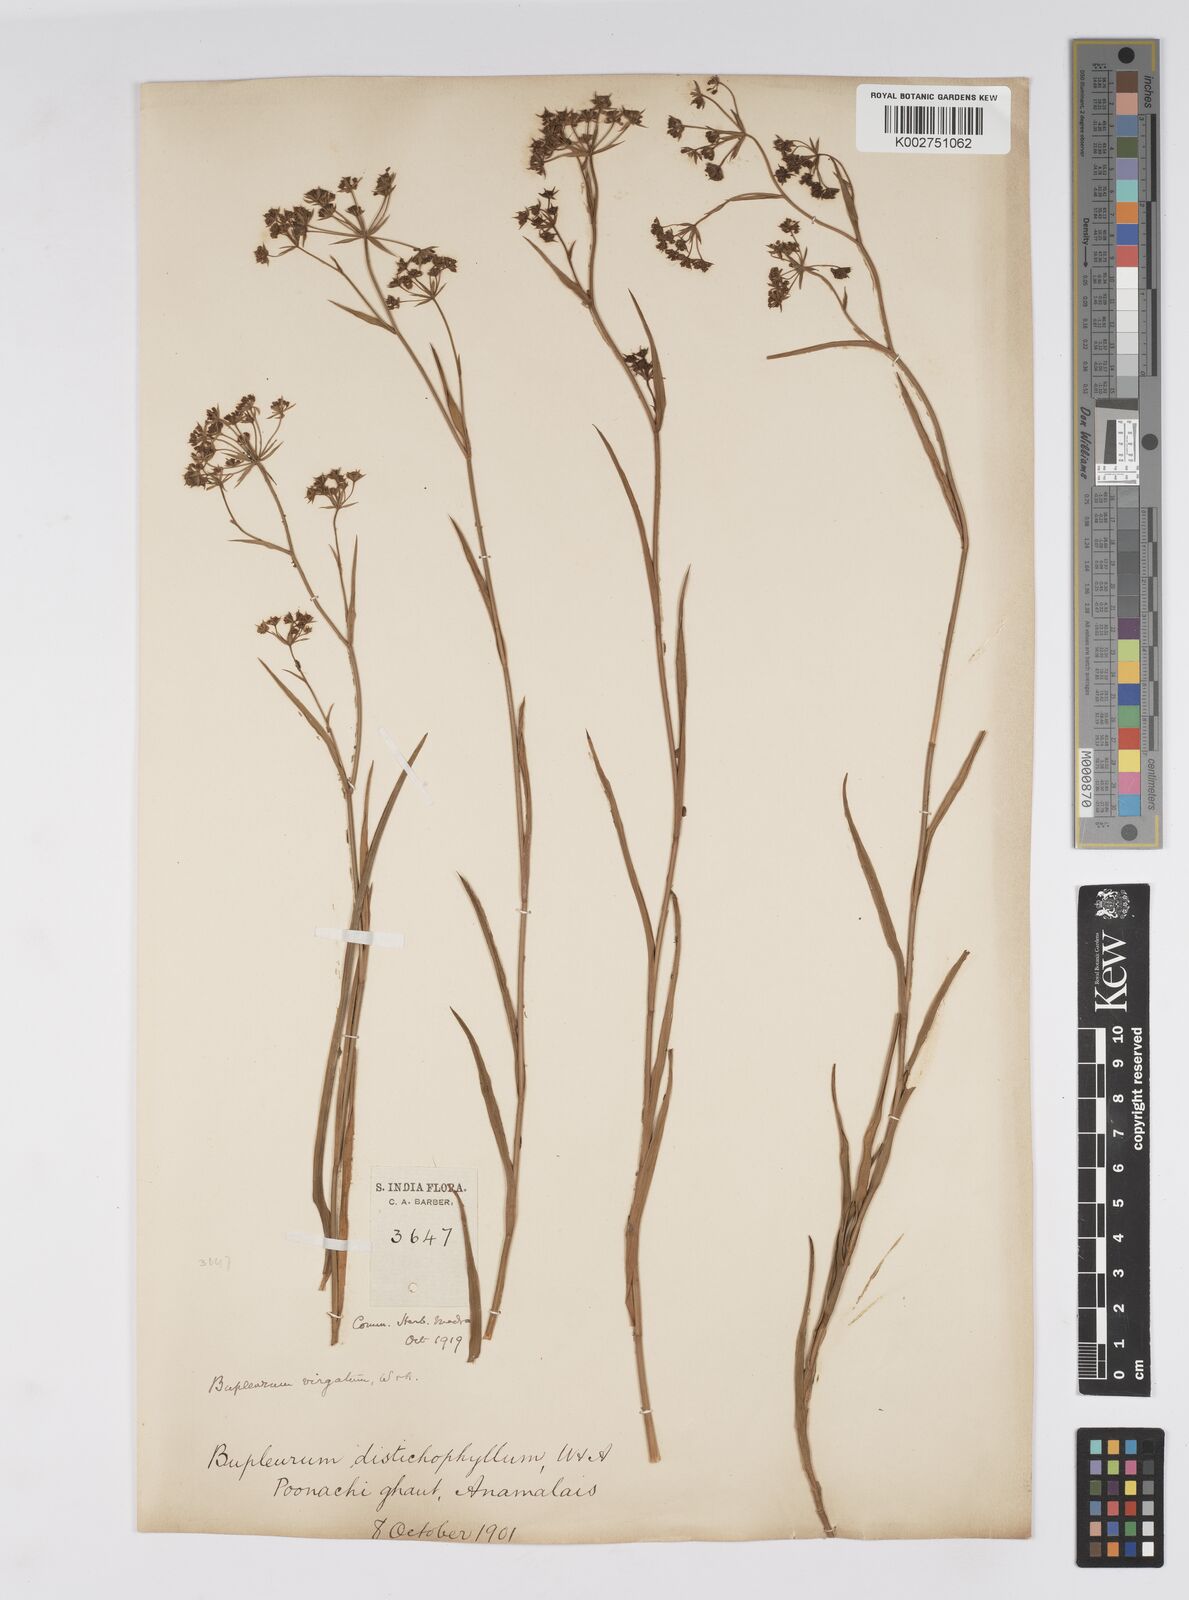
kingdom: Plantae
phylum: Tracheophyta
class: Magnoliopsida
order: Apiales
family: Apiaceae
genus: Bupleurum
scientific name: Bupleurum
